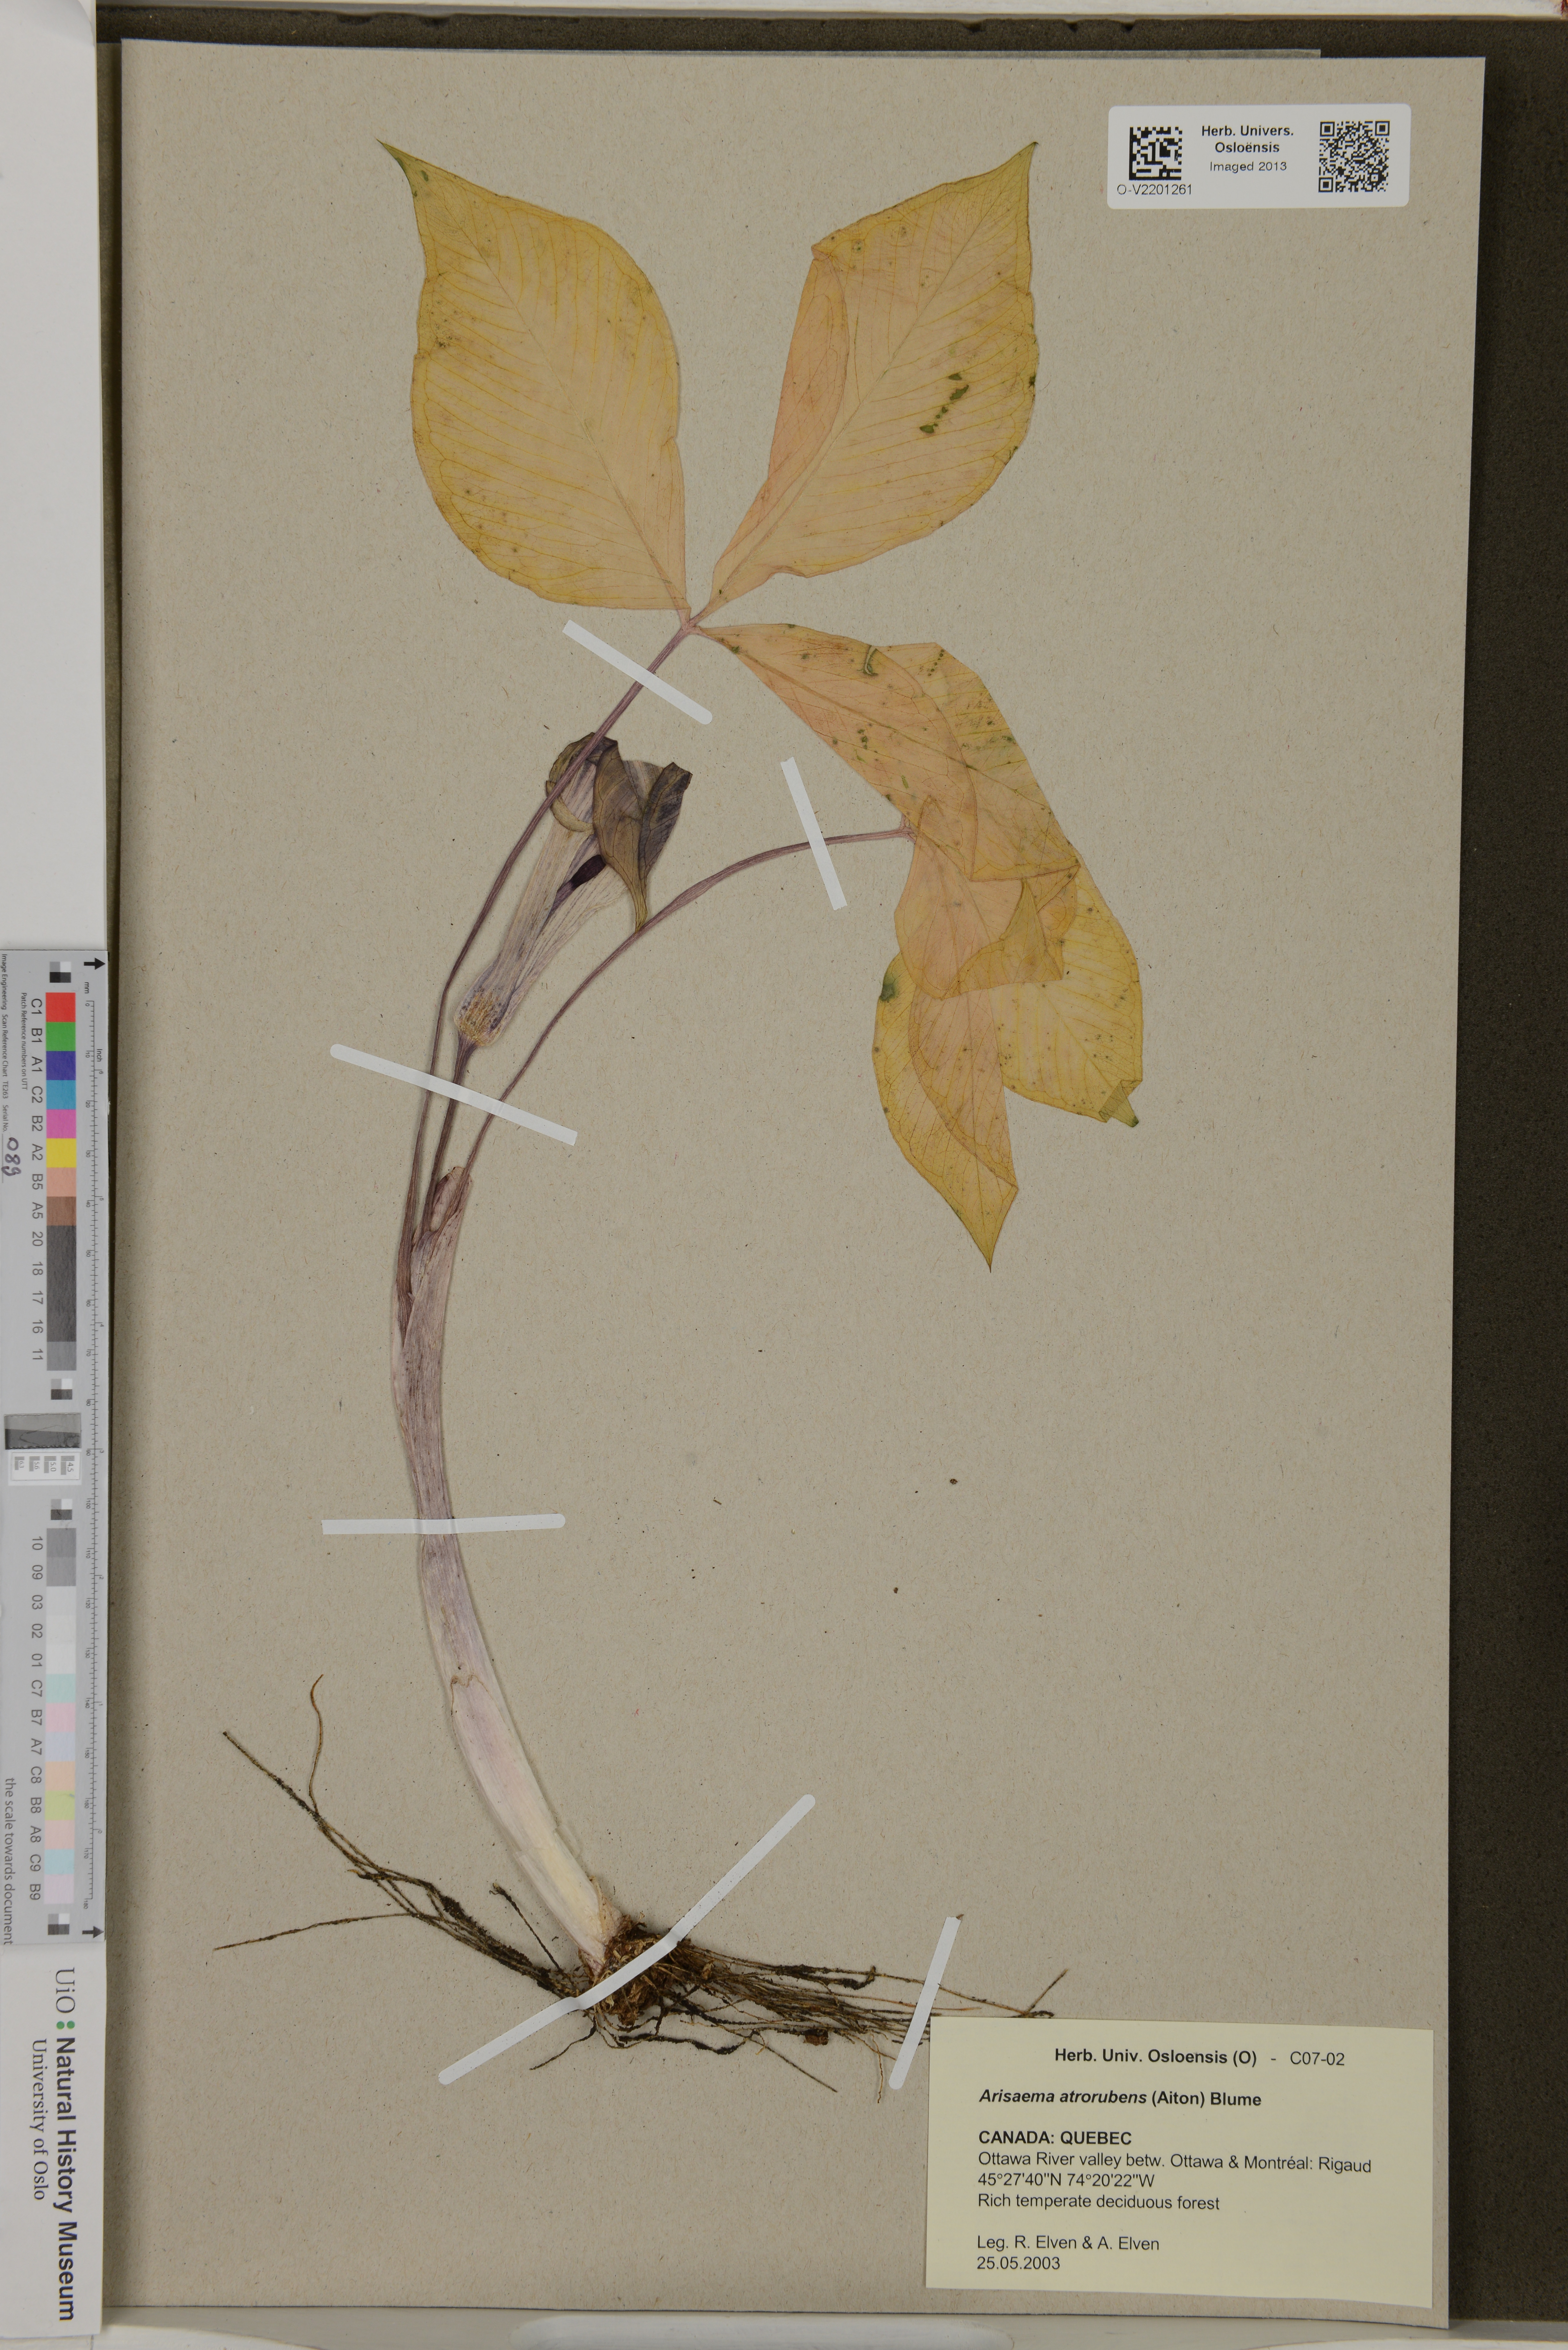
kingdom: Plantae
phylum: Tracheophyta
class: Liliopsida
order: Alismatales
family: Araceae
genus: Arisaema
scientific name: Arisaema triphyllum
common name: Jack-in-the-pulpit
